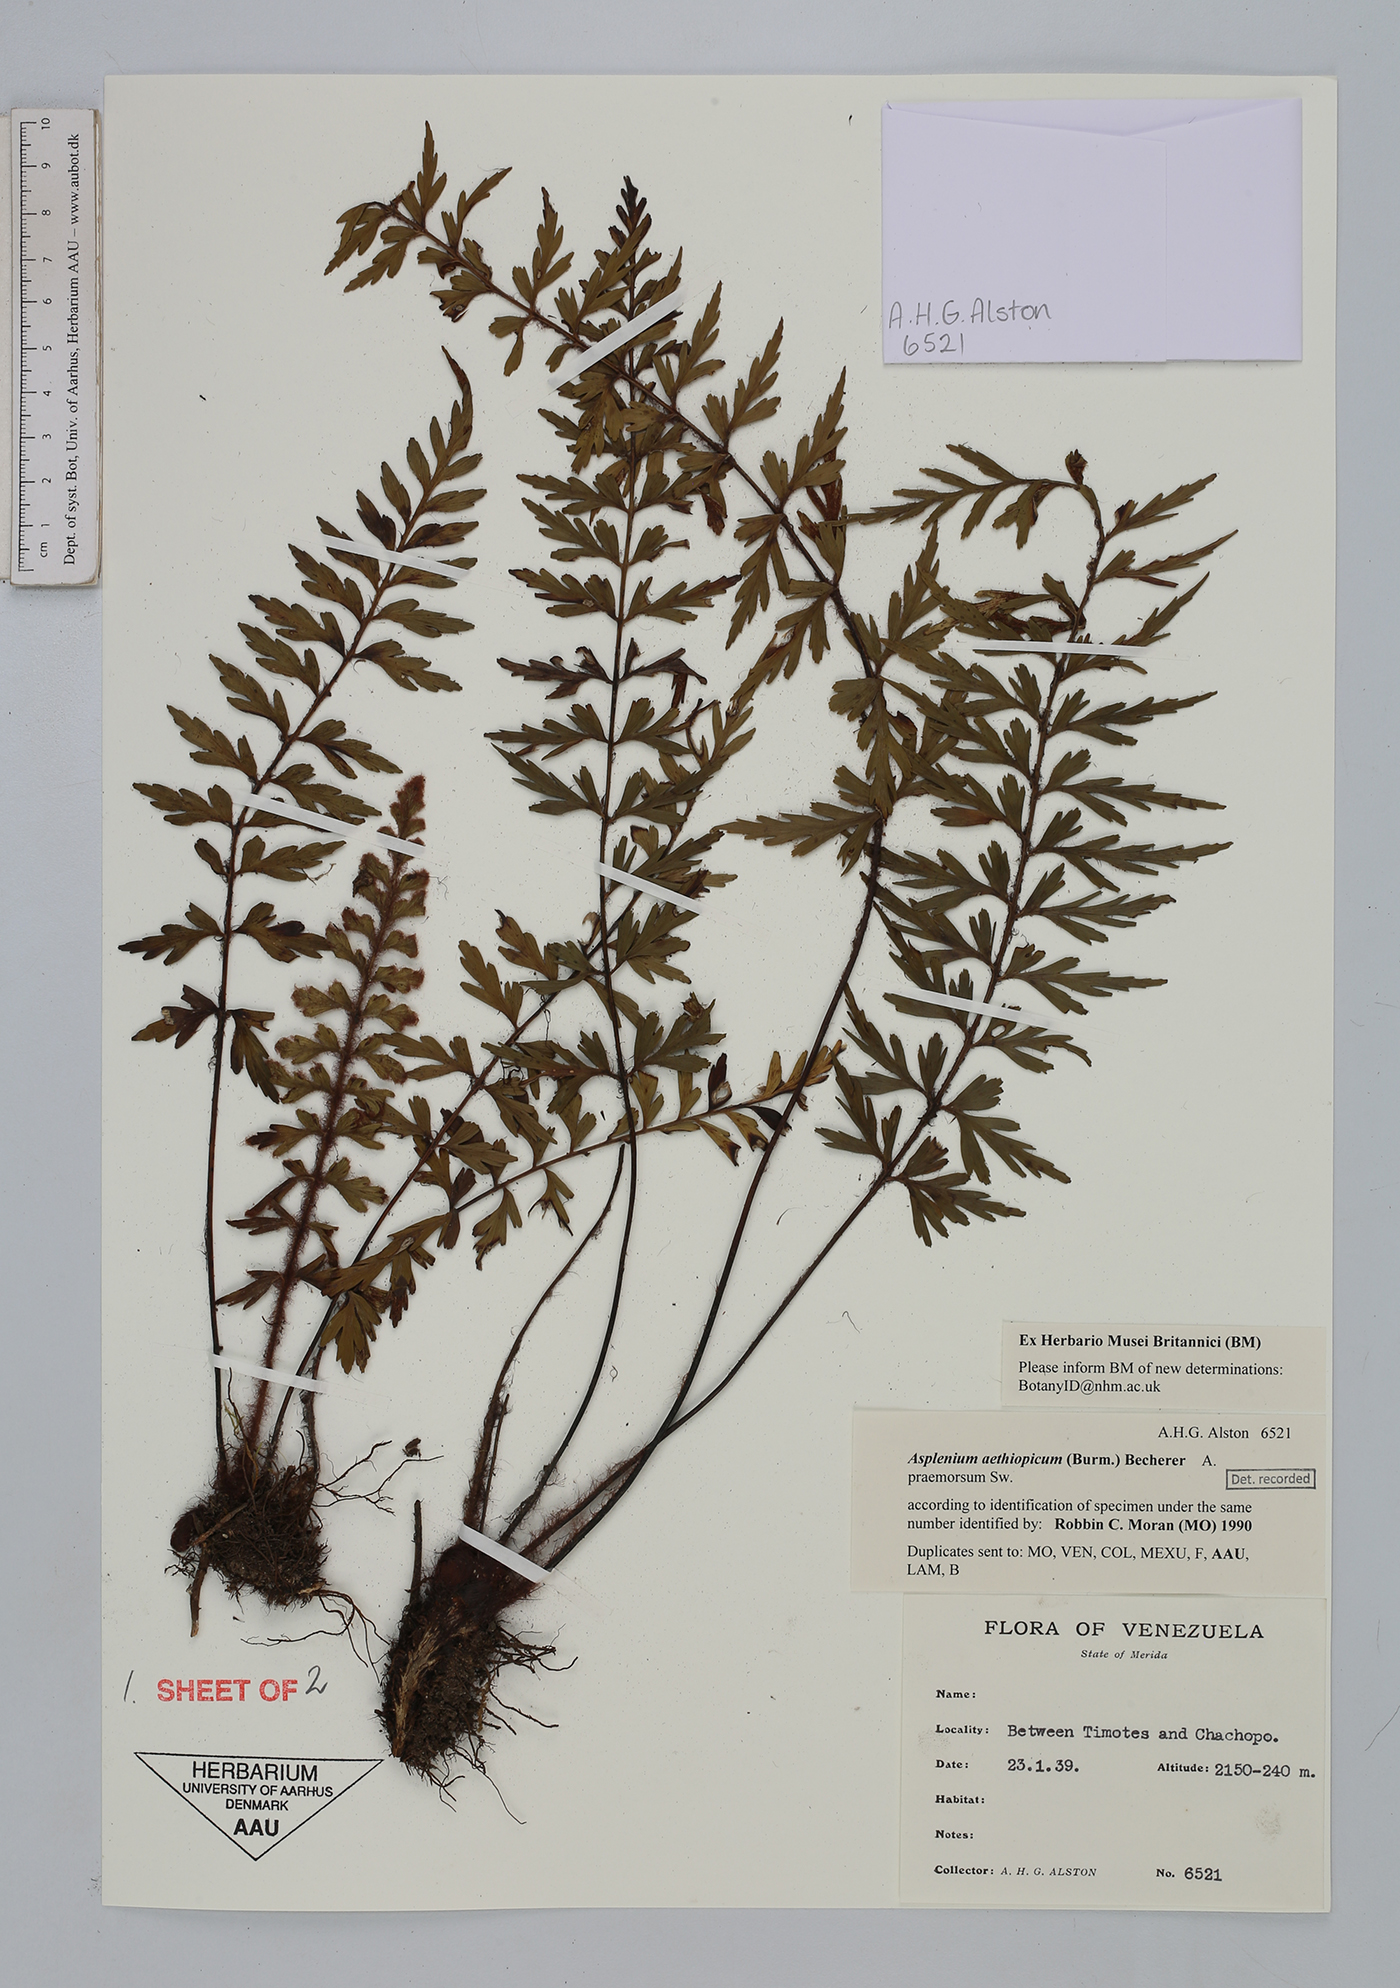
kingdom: Plantae
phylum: Tracheophyta
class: Polypodiopsida
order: Polypodiales
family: Aspleniaceae
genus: Asplenium
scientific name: Asplenium aethiopicum
